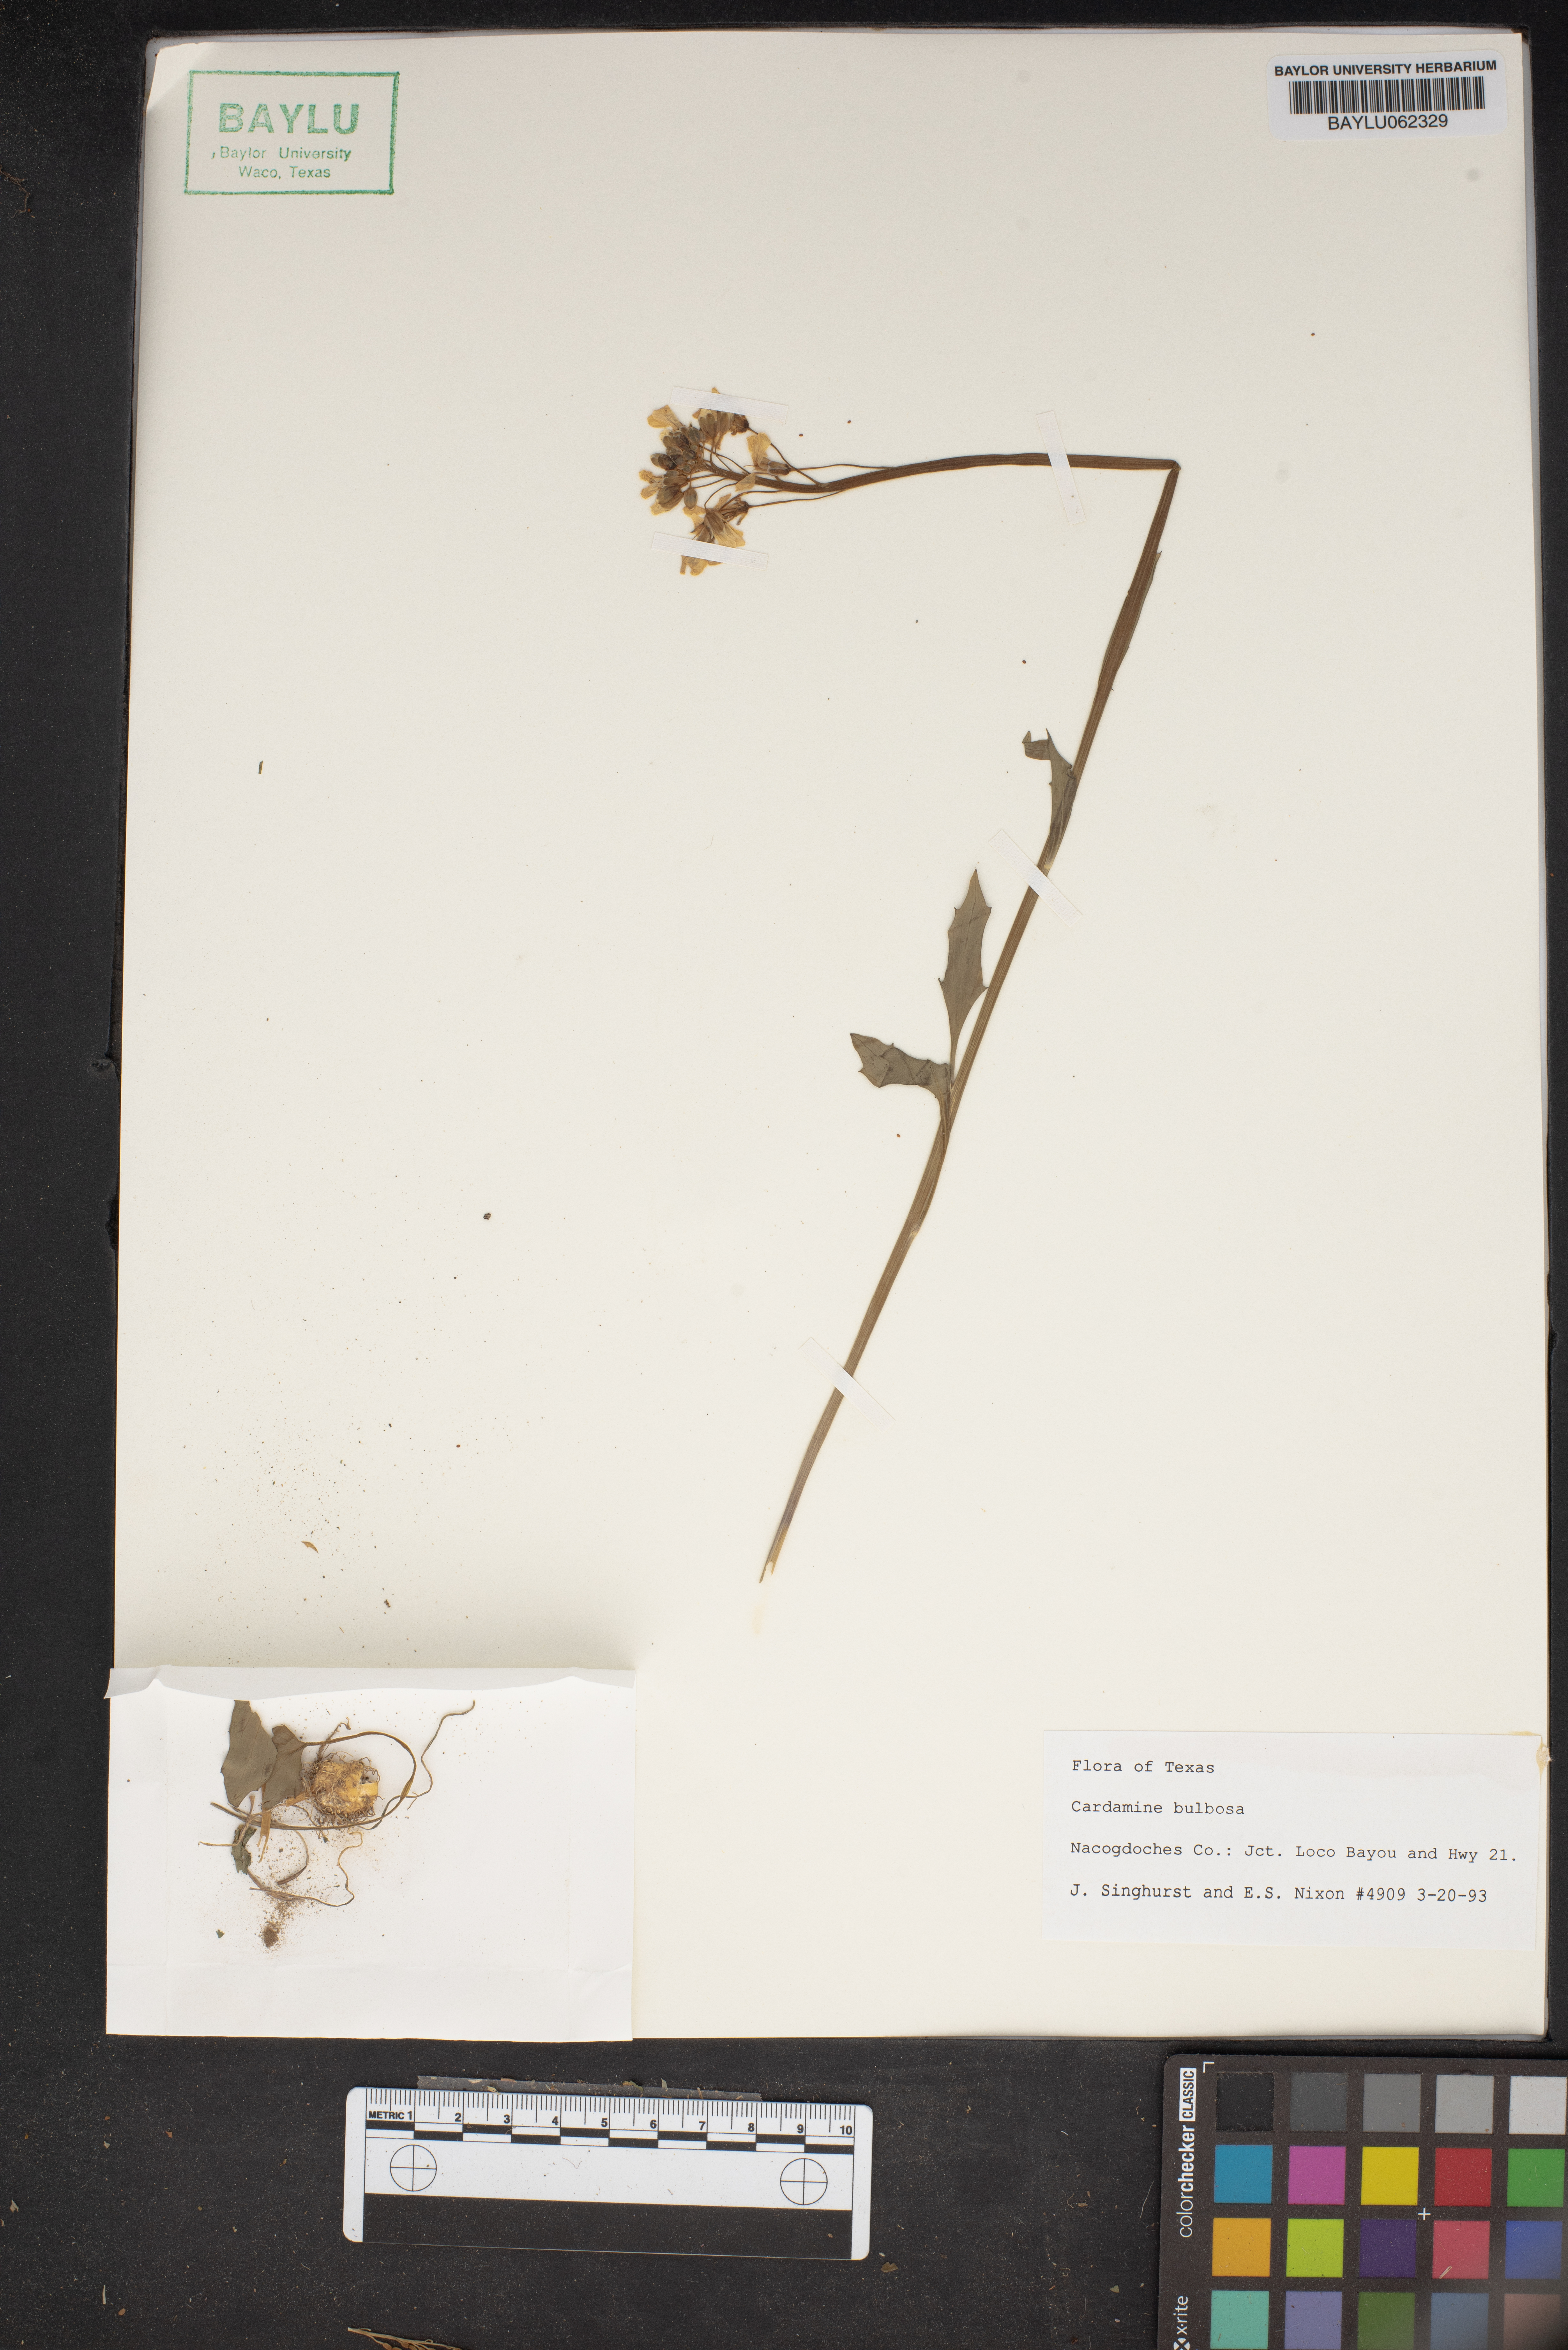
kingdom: Plantae
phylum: Tracheophyta
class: Magnoliopsida
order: Brassicales
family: Brassicaceae
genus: Cardamine
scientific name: Cardamine bulbosa
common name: Spring cress
